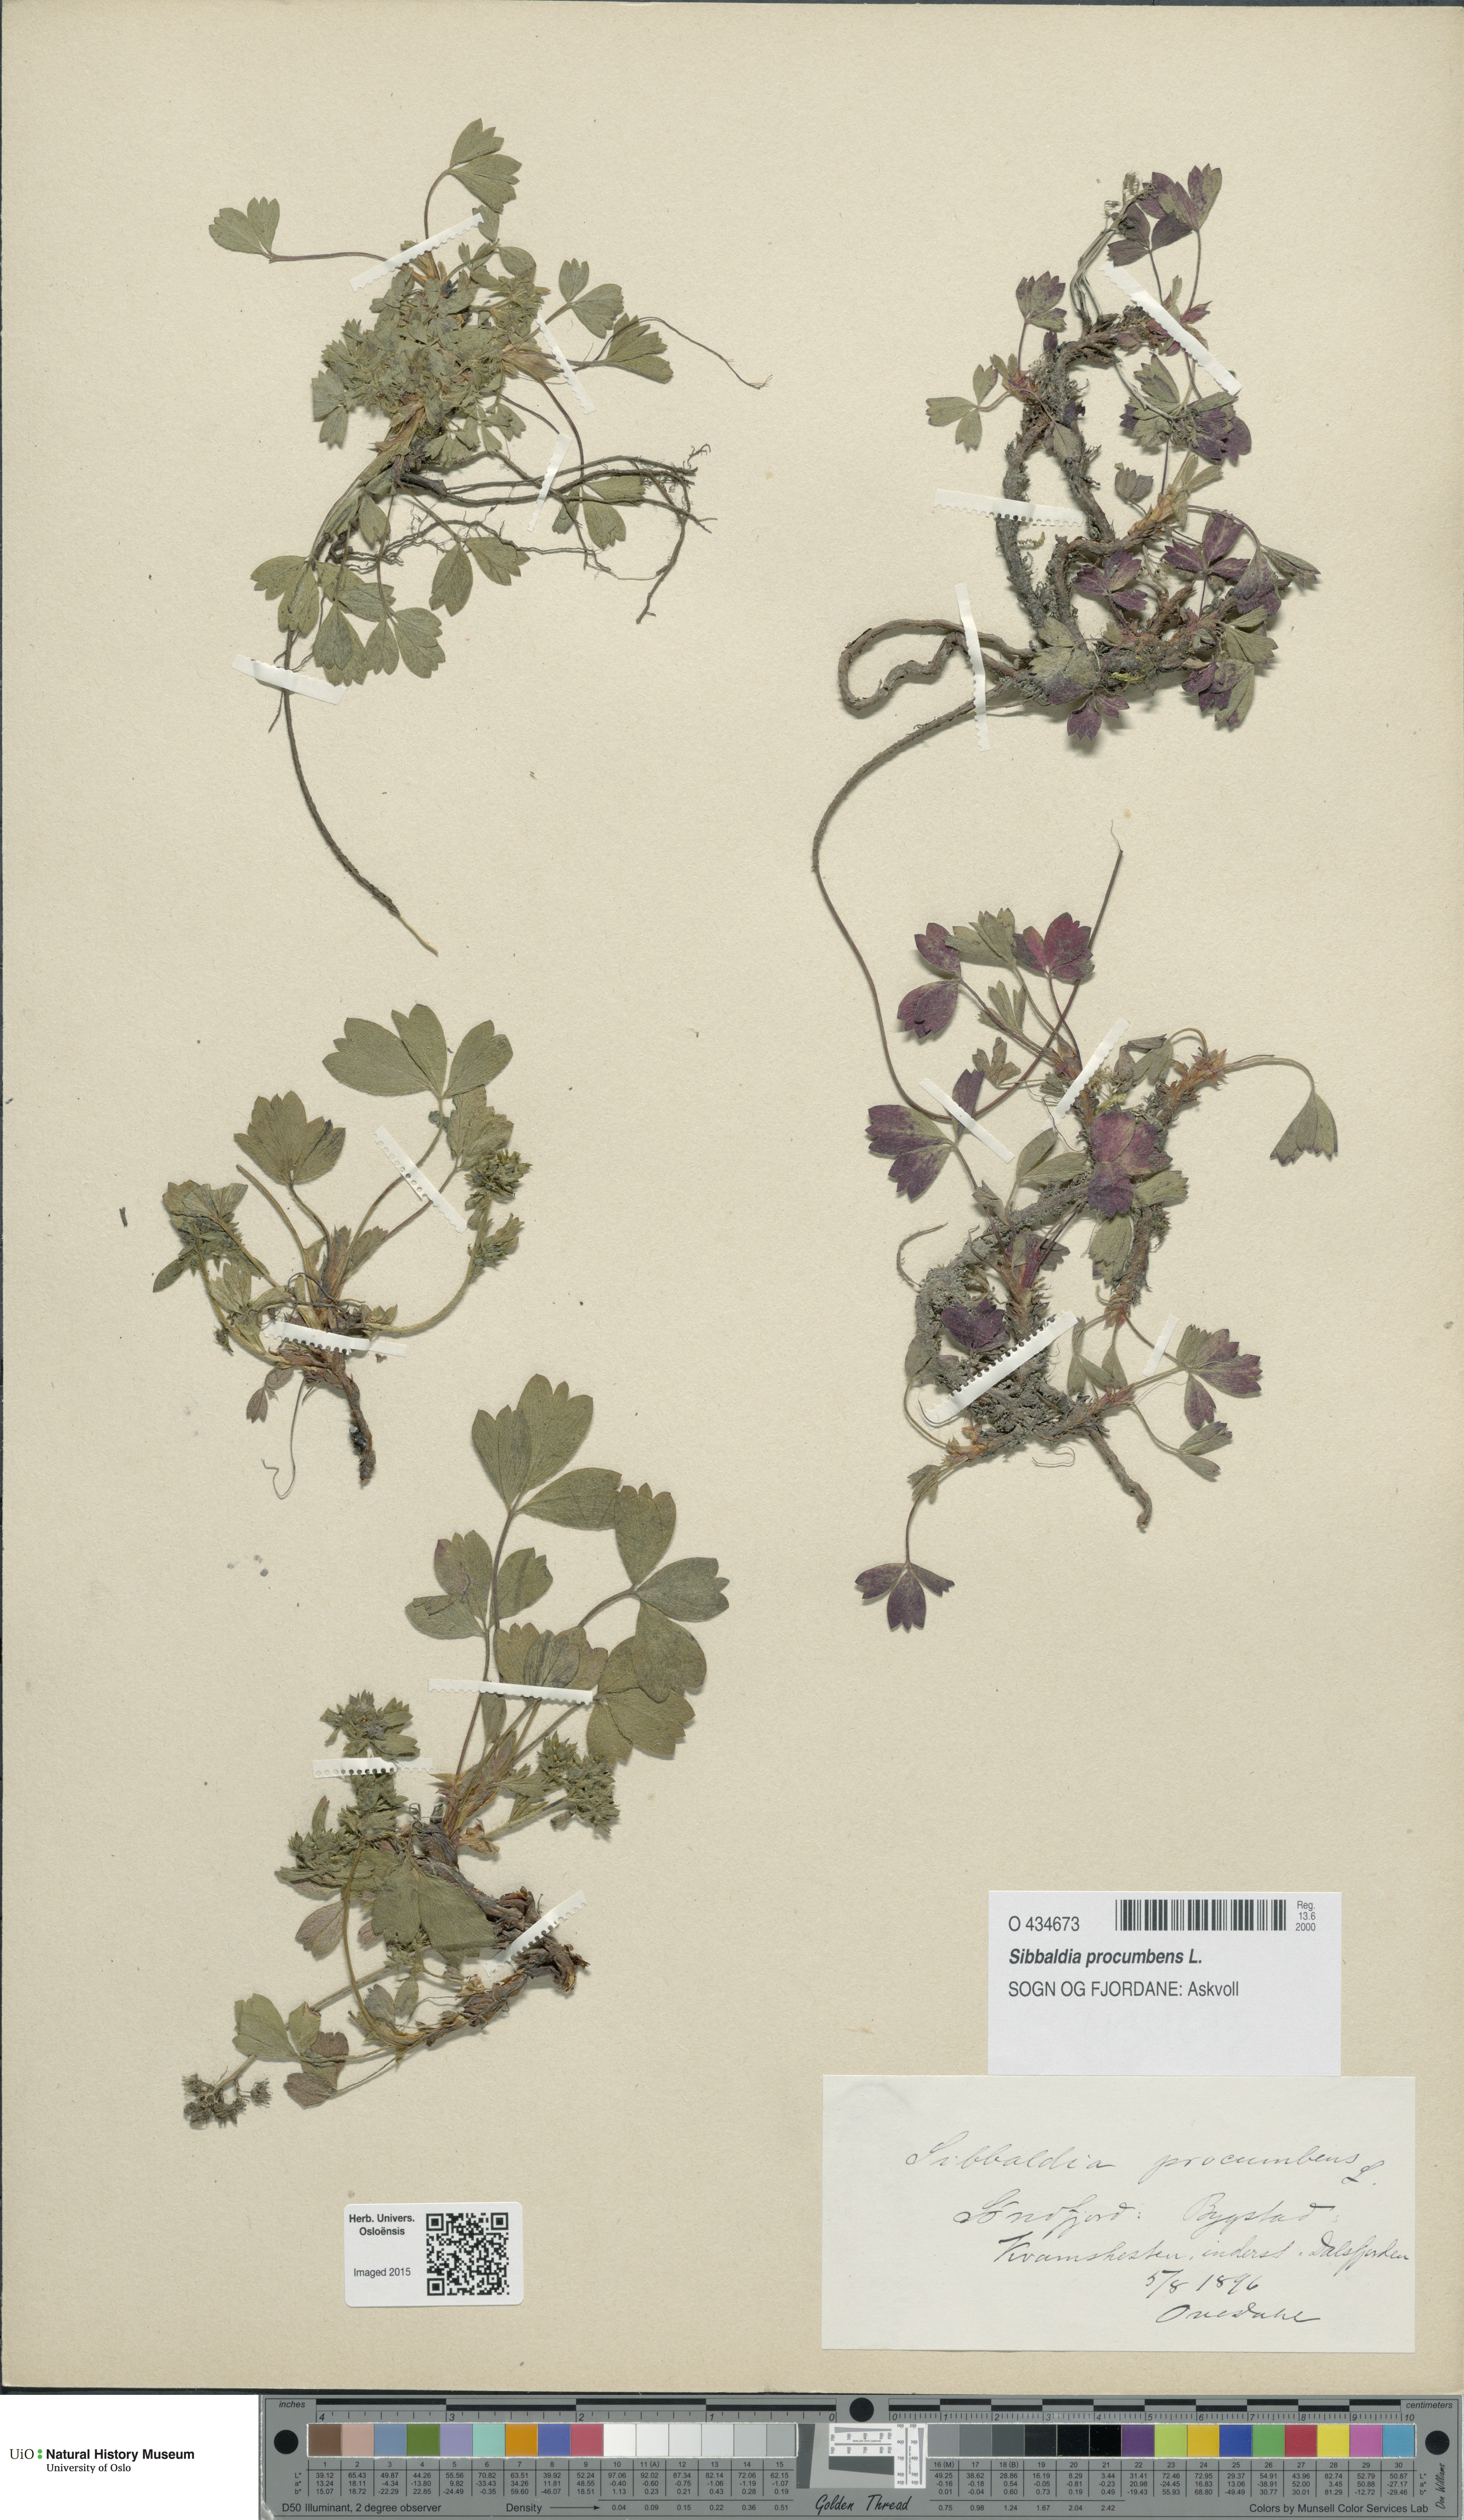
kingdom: Plantae
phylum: Tracheophyta
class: Magnoliopsida
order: Rosales
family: Rosaceae
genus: Sibbaldia
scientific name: Sibbaldia procumbens
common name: Creeping sibbaldia
